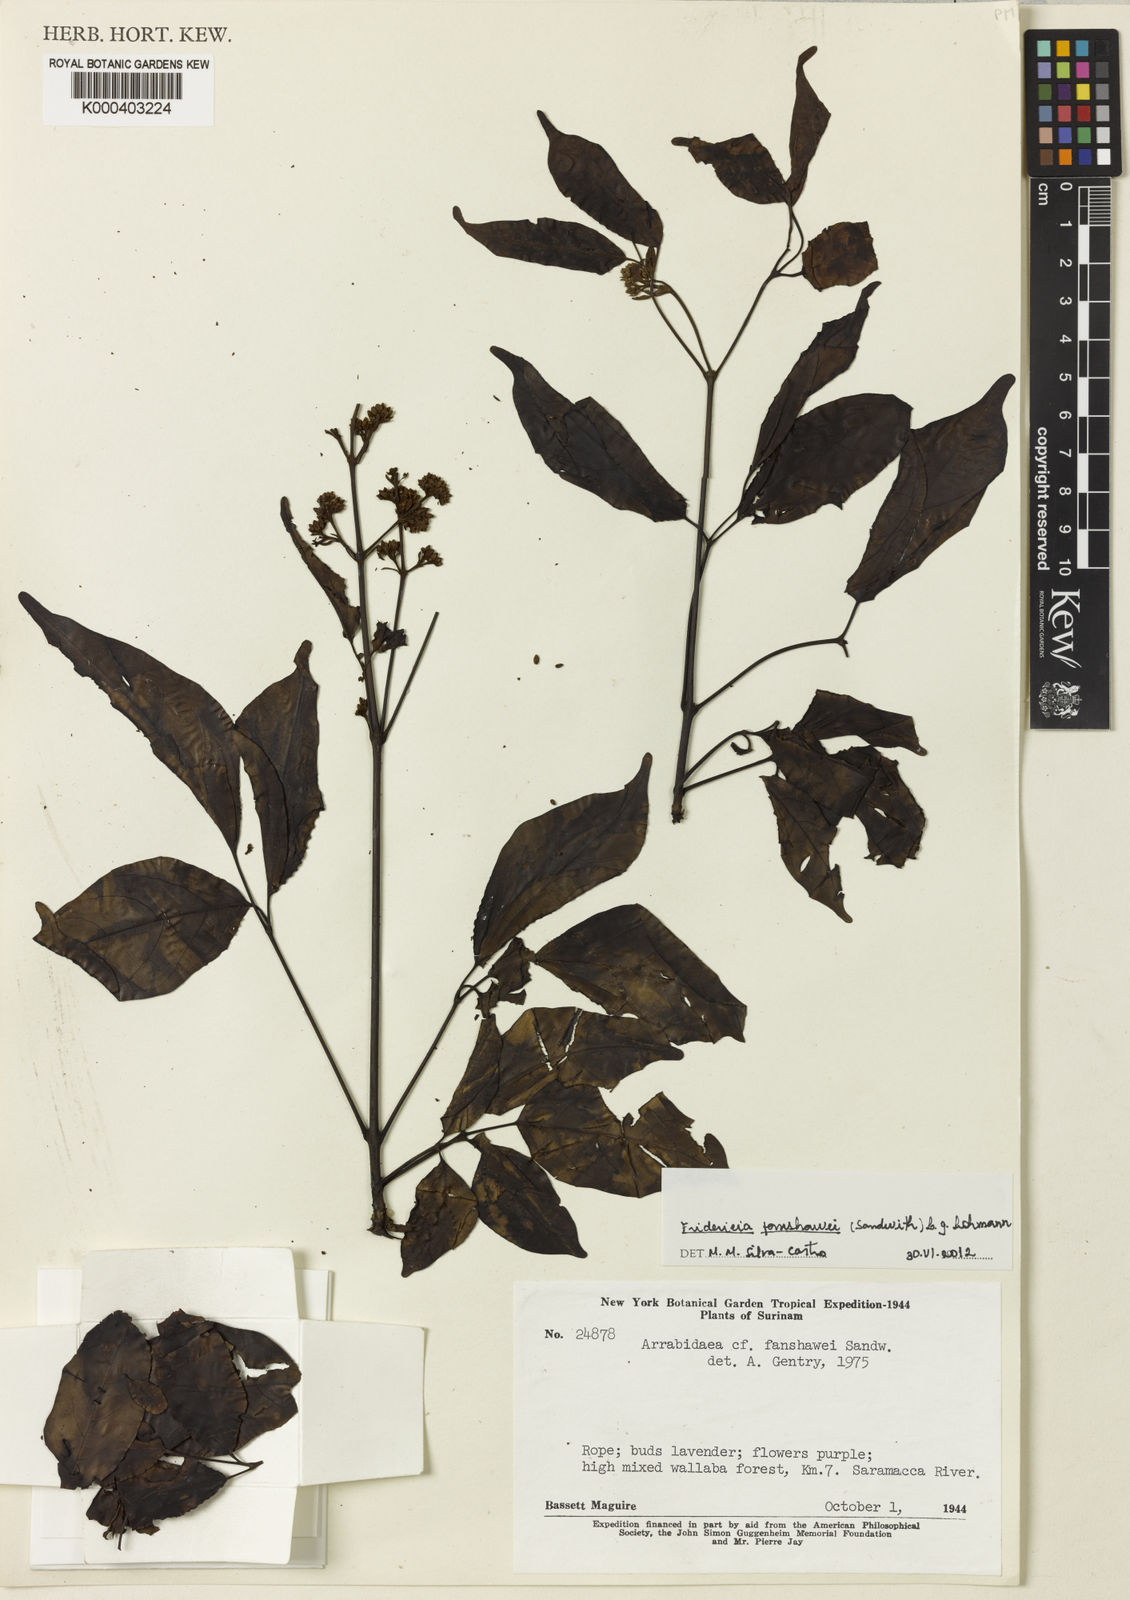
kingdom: Plantae
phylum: Tracheophyta
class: Magnoliopsida
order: Lamiales
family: Bignoniaceae
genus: Fridericia
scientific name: Fridericia fanshawei
